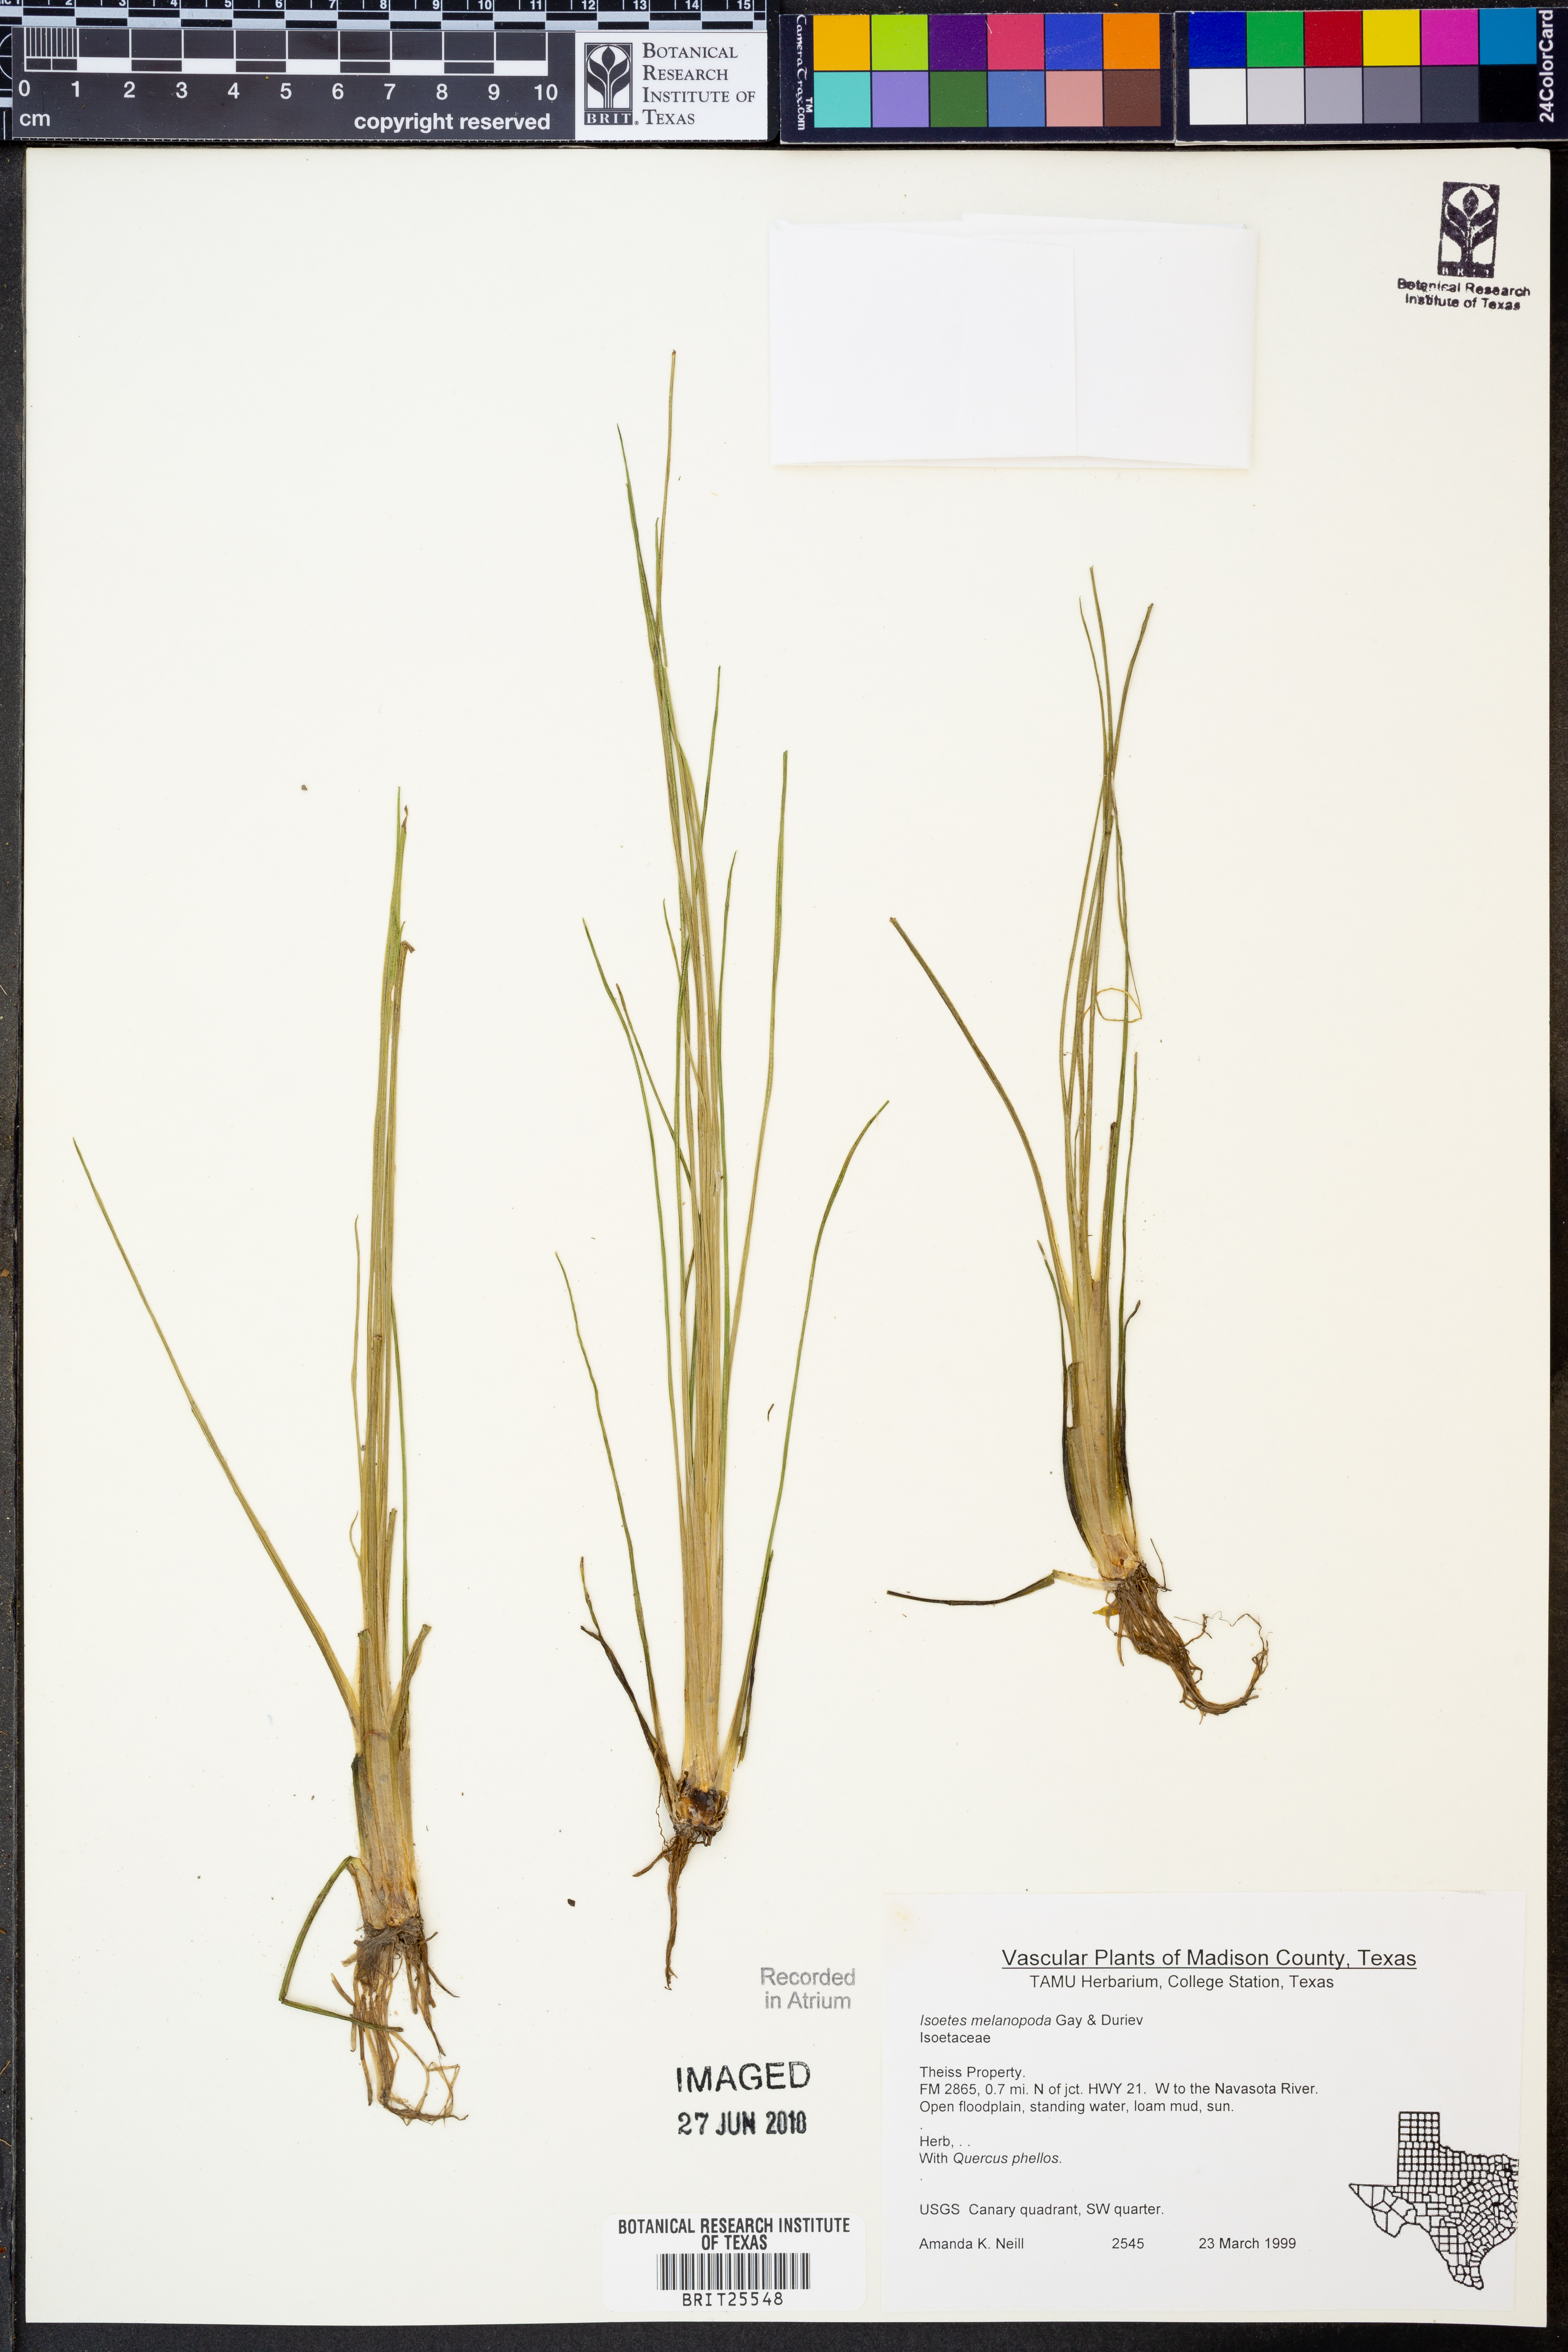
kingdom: Plantae
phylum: Tracheophyta
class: Lycopodiopsida
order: Isoetales
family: Isoetaceae
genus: Isoetes
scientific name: Isoetes melanopoda
